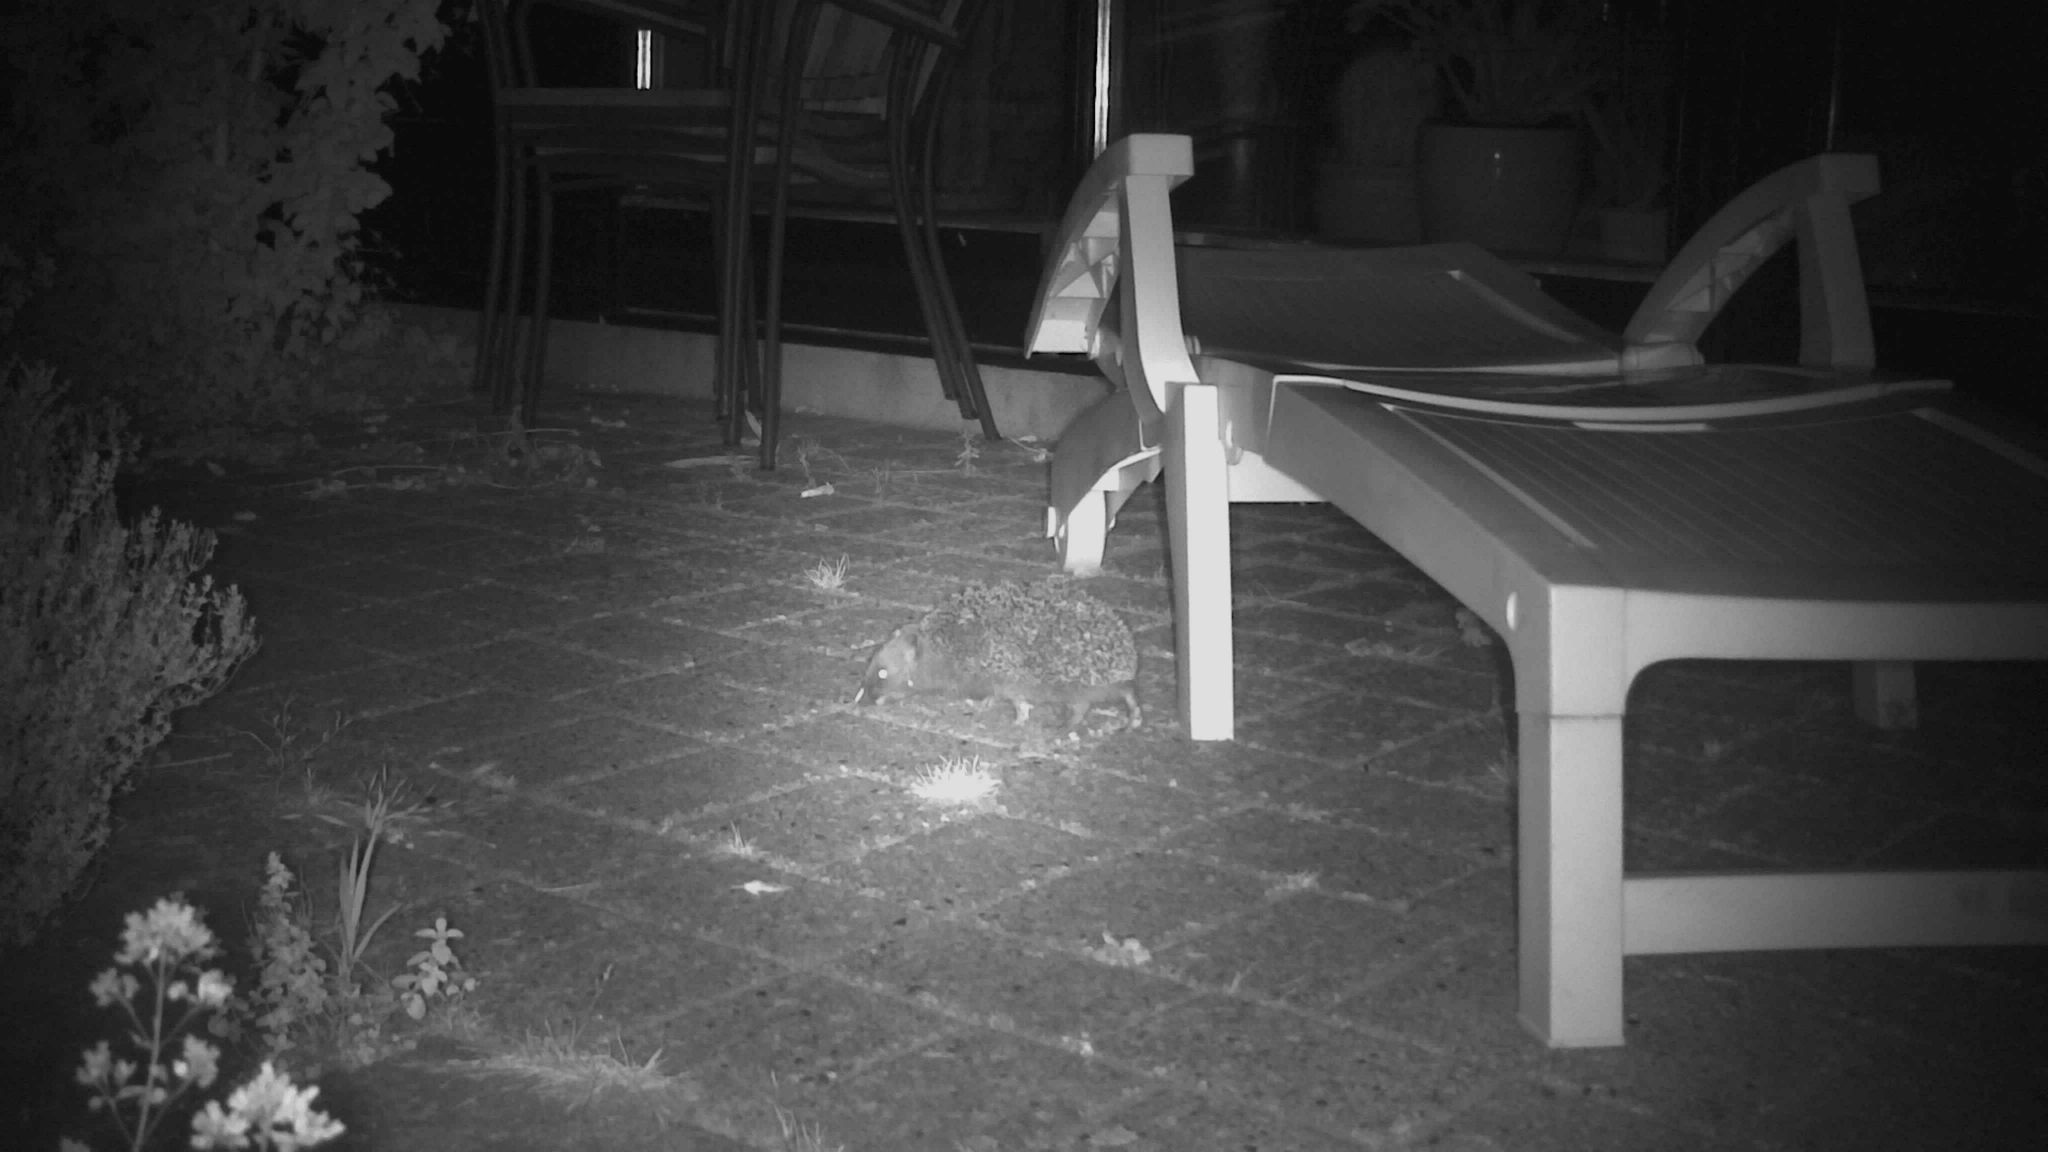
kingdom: Animalia
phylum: Chordata
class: Mammalia
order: Erinaceomorpha
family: Erinaceidae
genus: Erinaceus
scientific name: Erinaceus europaeus
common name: Pindsvin
